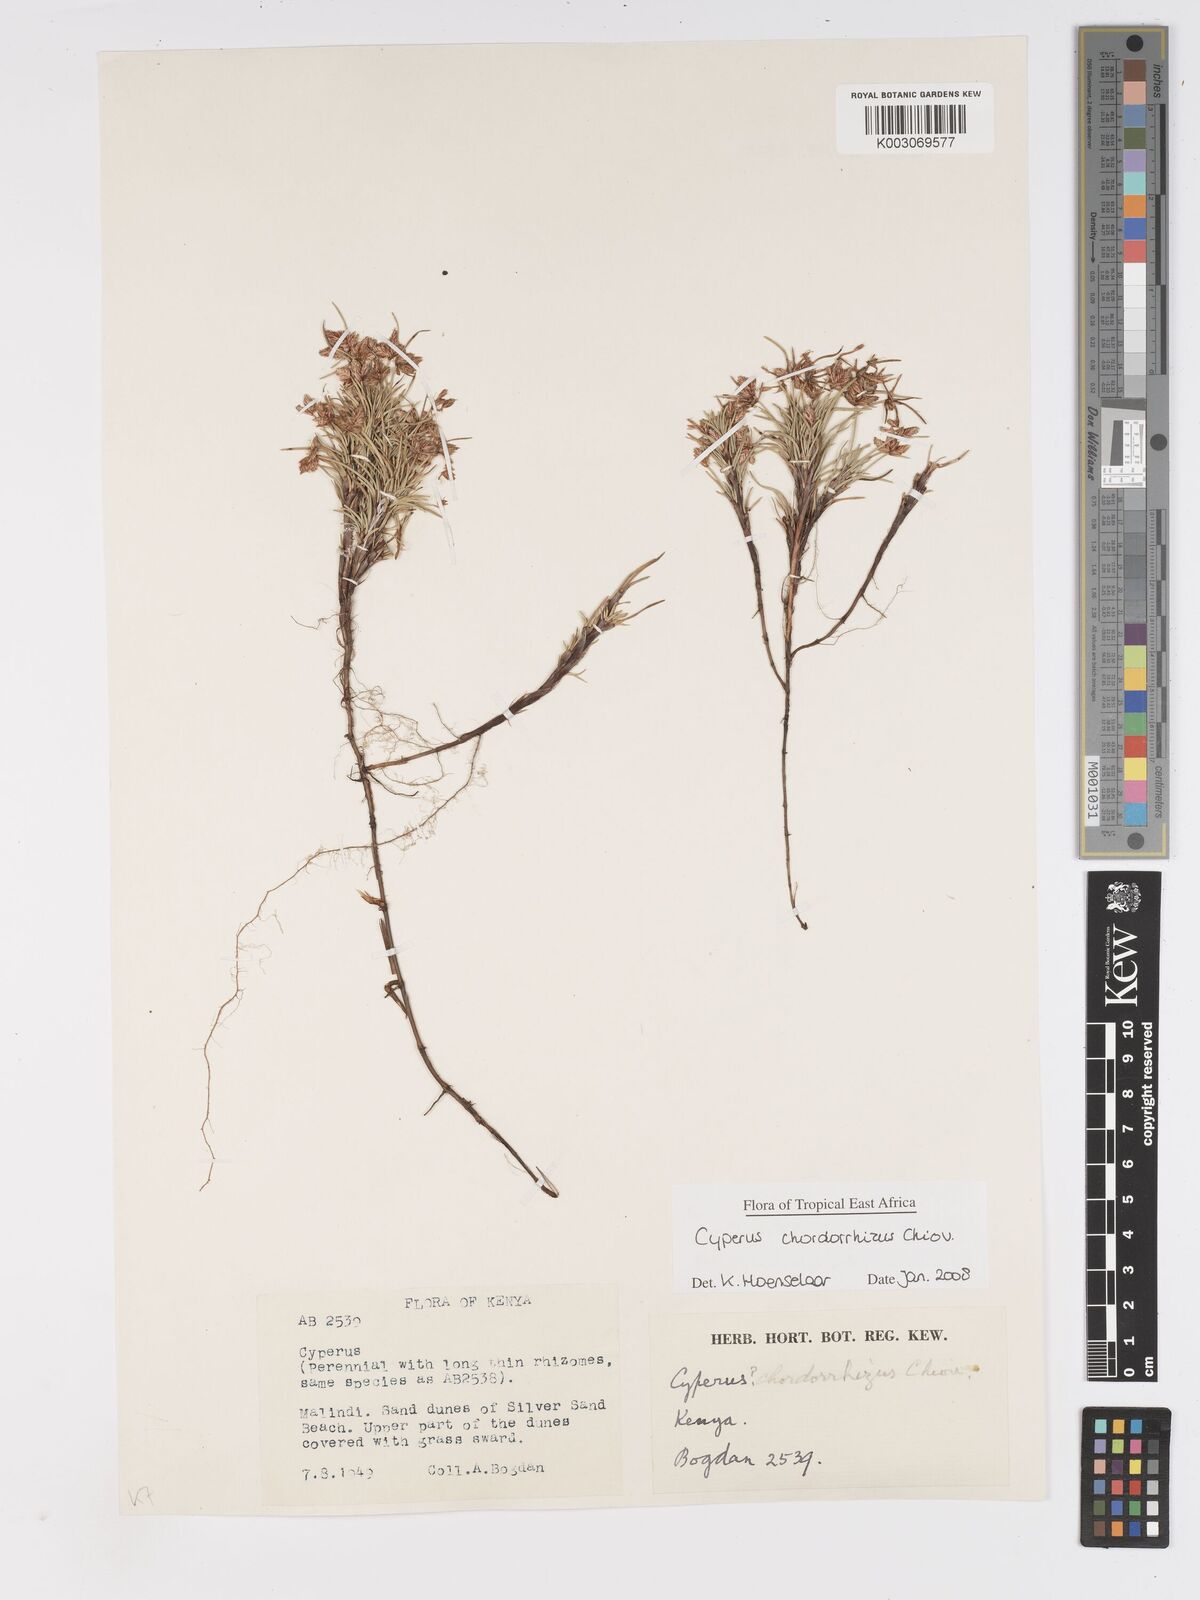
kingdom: Plantae
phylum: Tracheophyta
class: Liliopsida
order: Poales
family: Cyperaceae
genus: Cyperus
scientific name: Cyperus chordorrhizus
